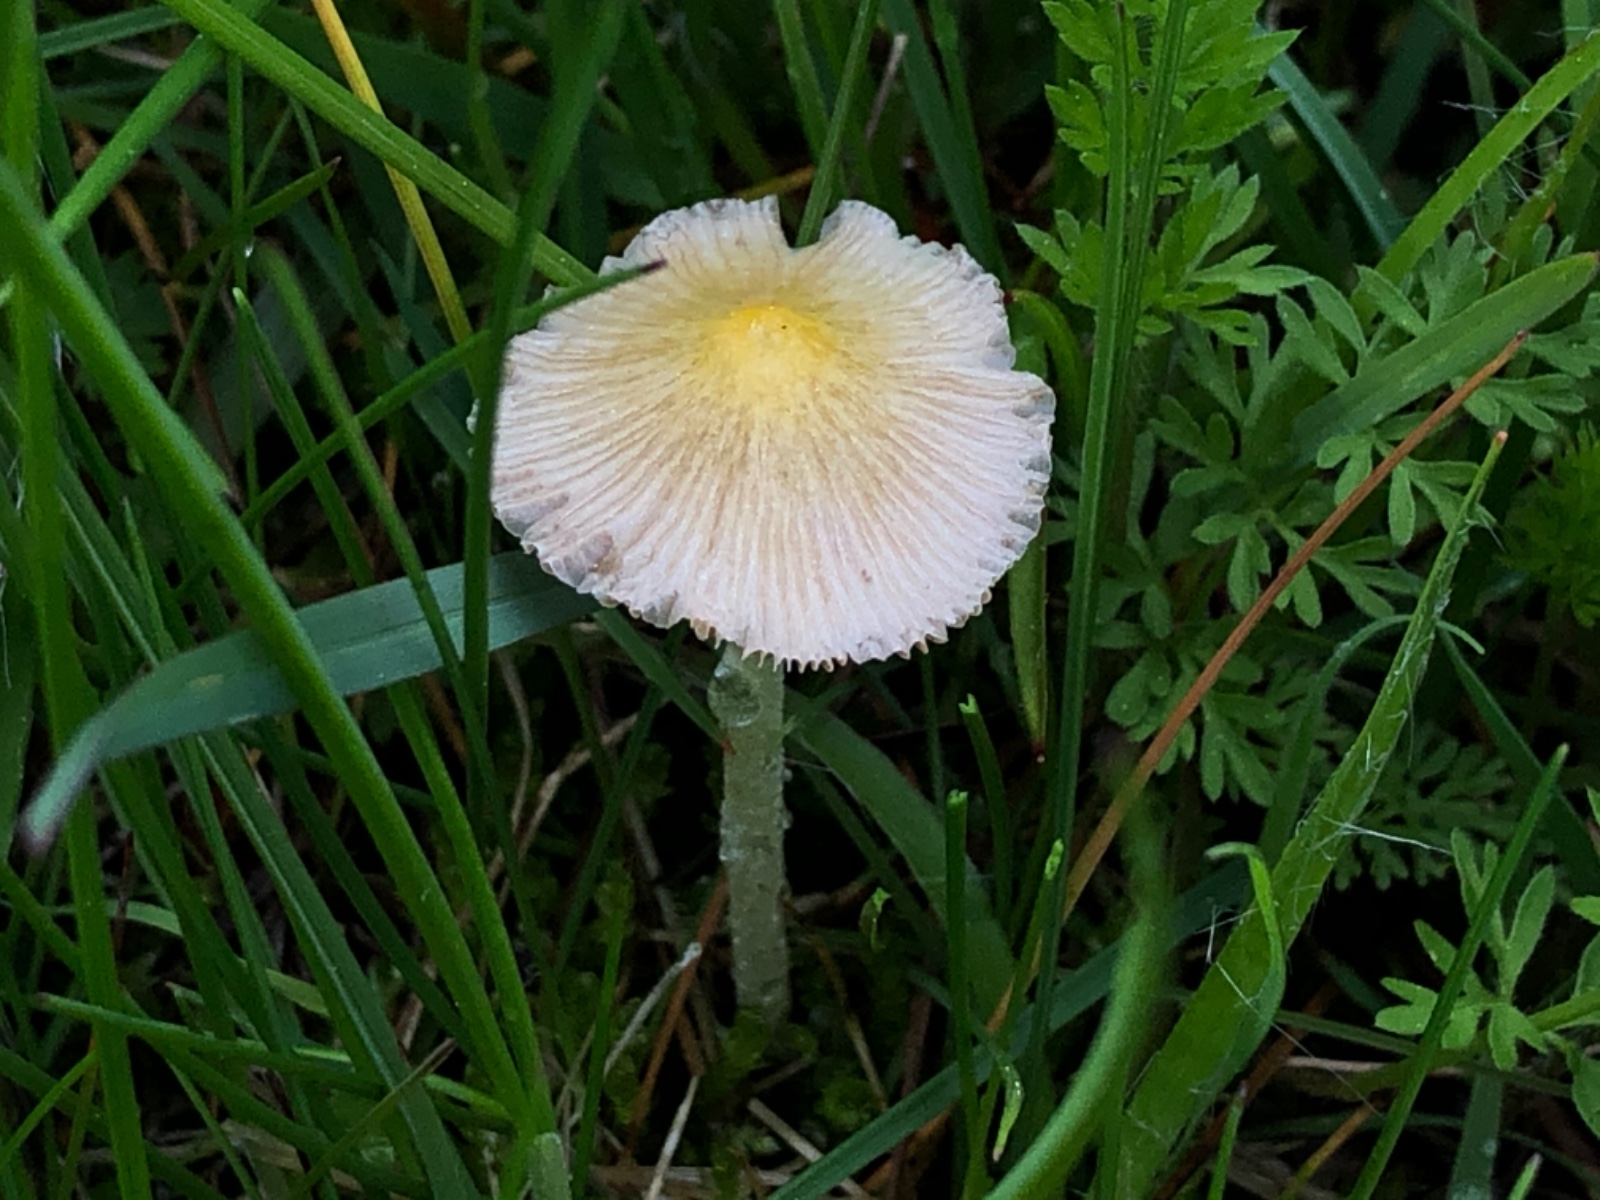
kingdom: Fungi
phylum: Basidiomycota
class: Agaricomycetes
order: Agaricales
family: Bolbitiaceae
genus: Bolbitius
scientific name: Bolbitius titubans
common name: almindelig gulhat
